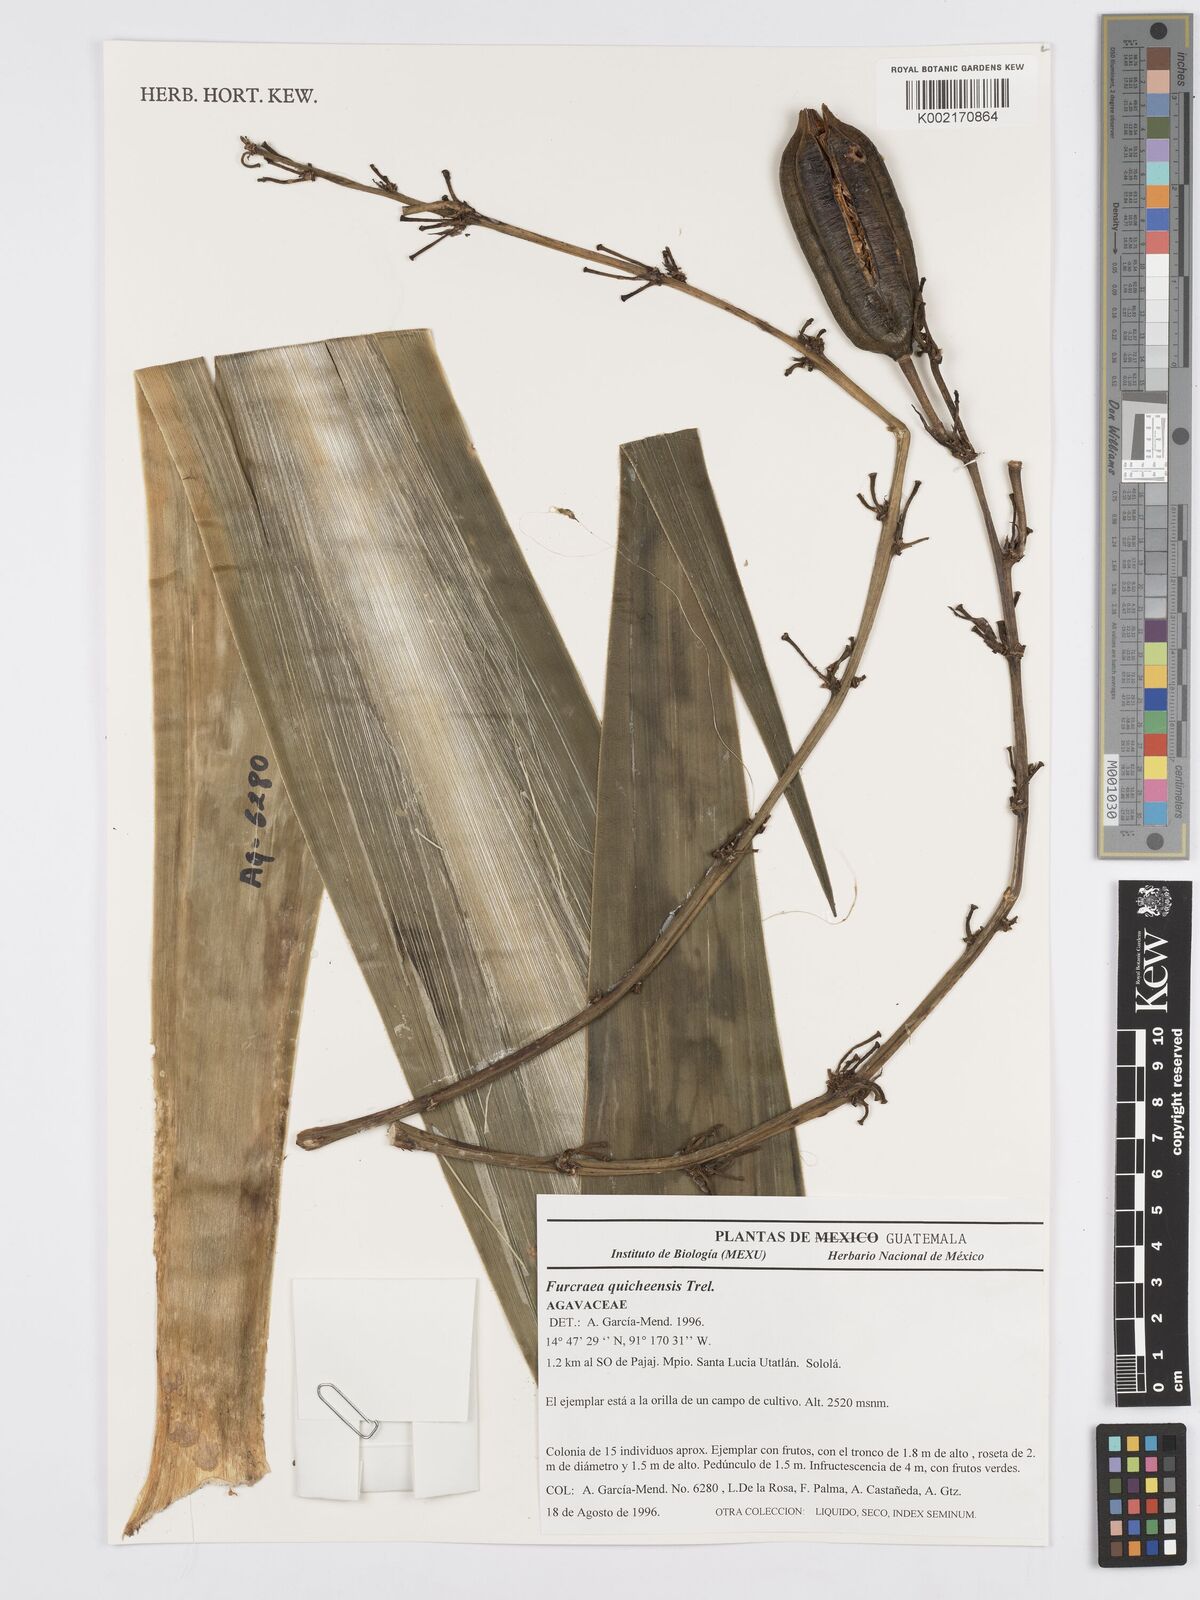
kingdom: Plantae
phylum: Tracheophyta
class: Liliopsida
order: Asparagales
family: Asparagaceae
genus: Furcraea
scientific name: Furcraea quicheensis
